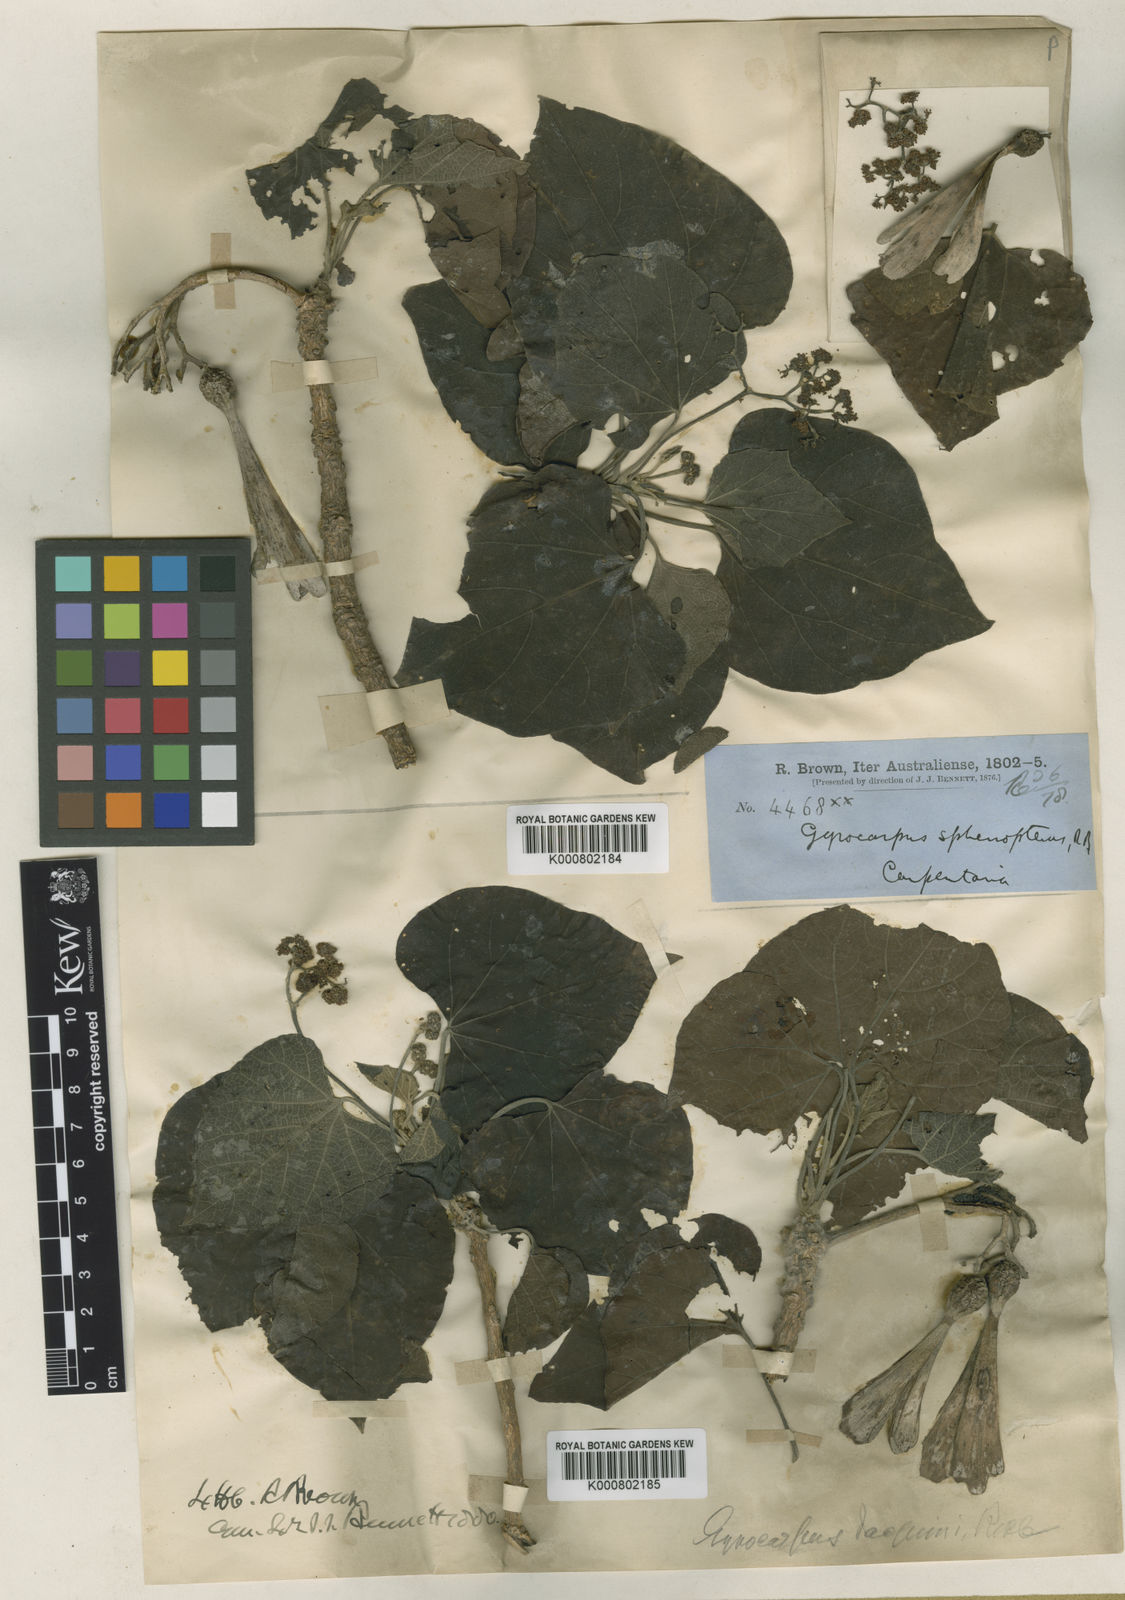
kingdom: Plantae
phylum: Tracheophyta
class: Magnoliopsida
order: Laurales
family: Hernandiaceae
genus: Gyrocarpus
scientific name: Gyrocarpus americanus
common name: Gyro damson
